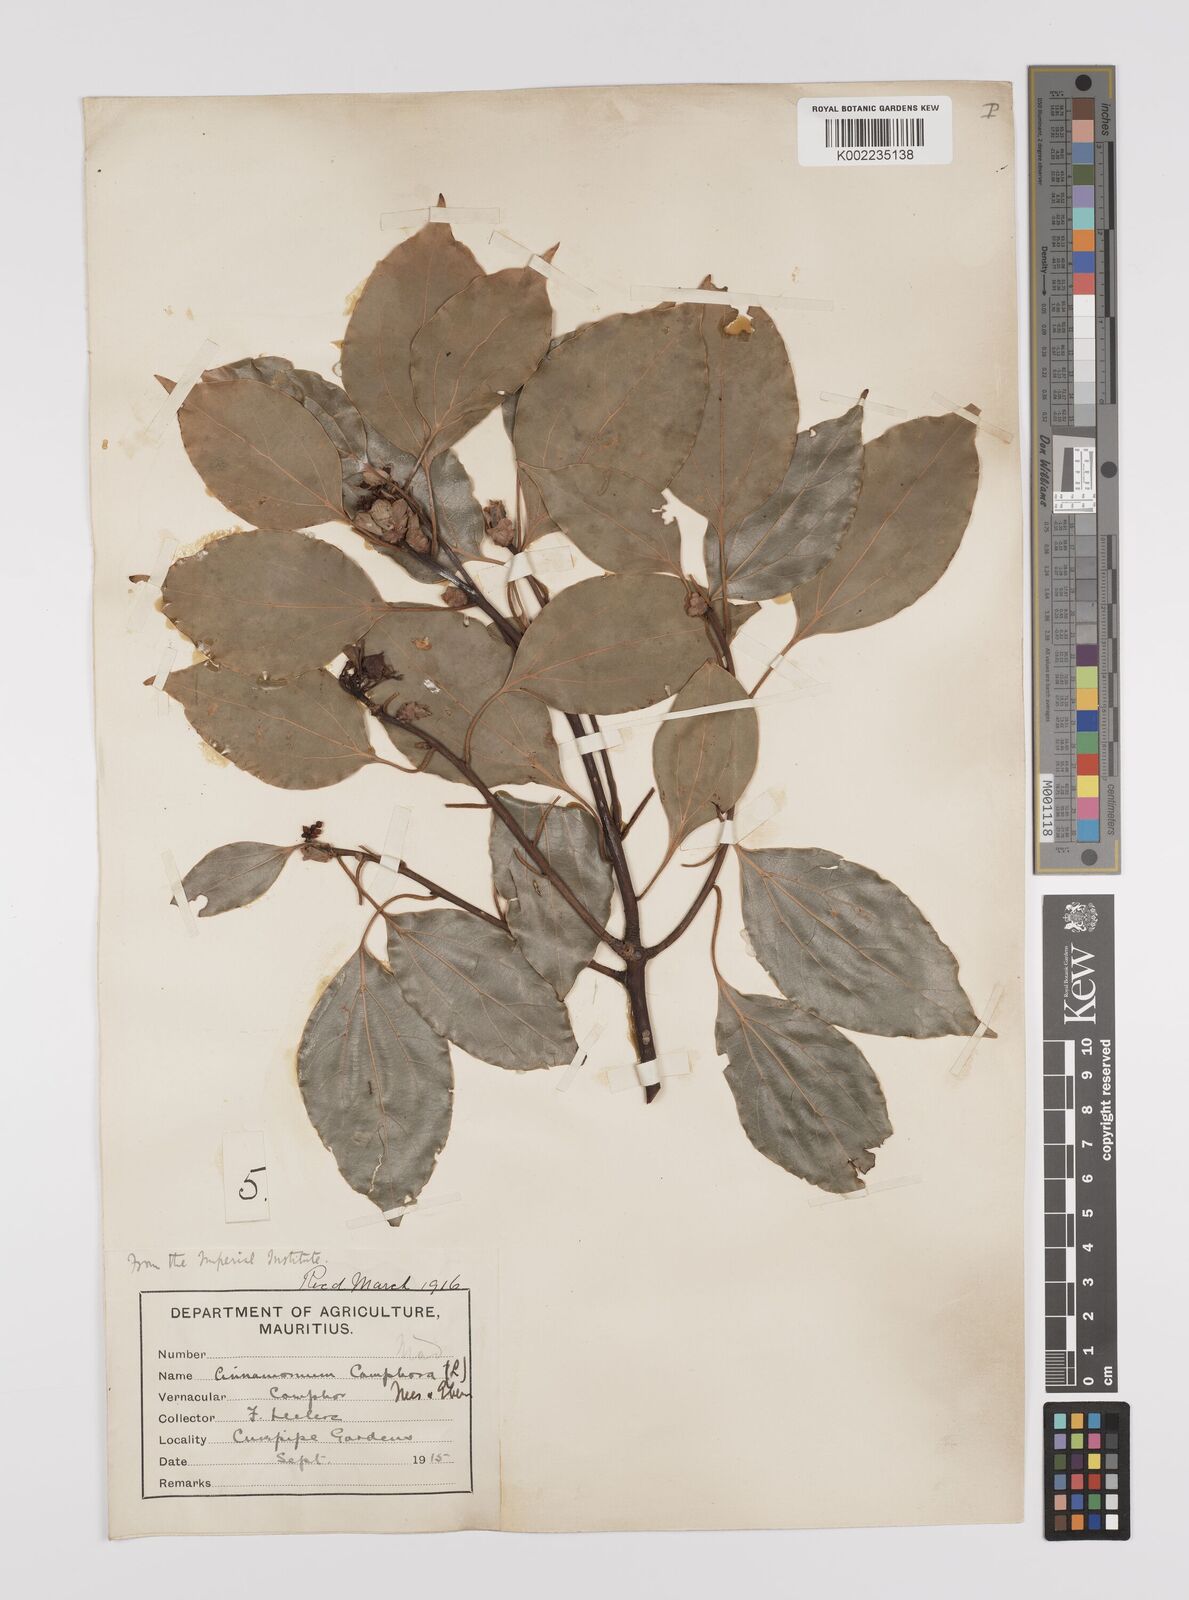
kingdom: Plantae
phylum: Tracheophyta
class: Magnoliopsida
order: Laurales
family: Lauraceae
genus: Cinnamomum
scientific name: Cinnamomum camphora
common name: Camphortree
